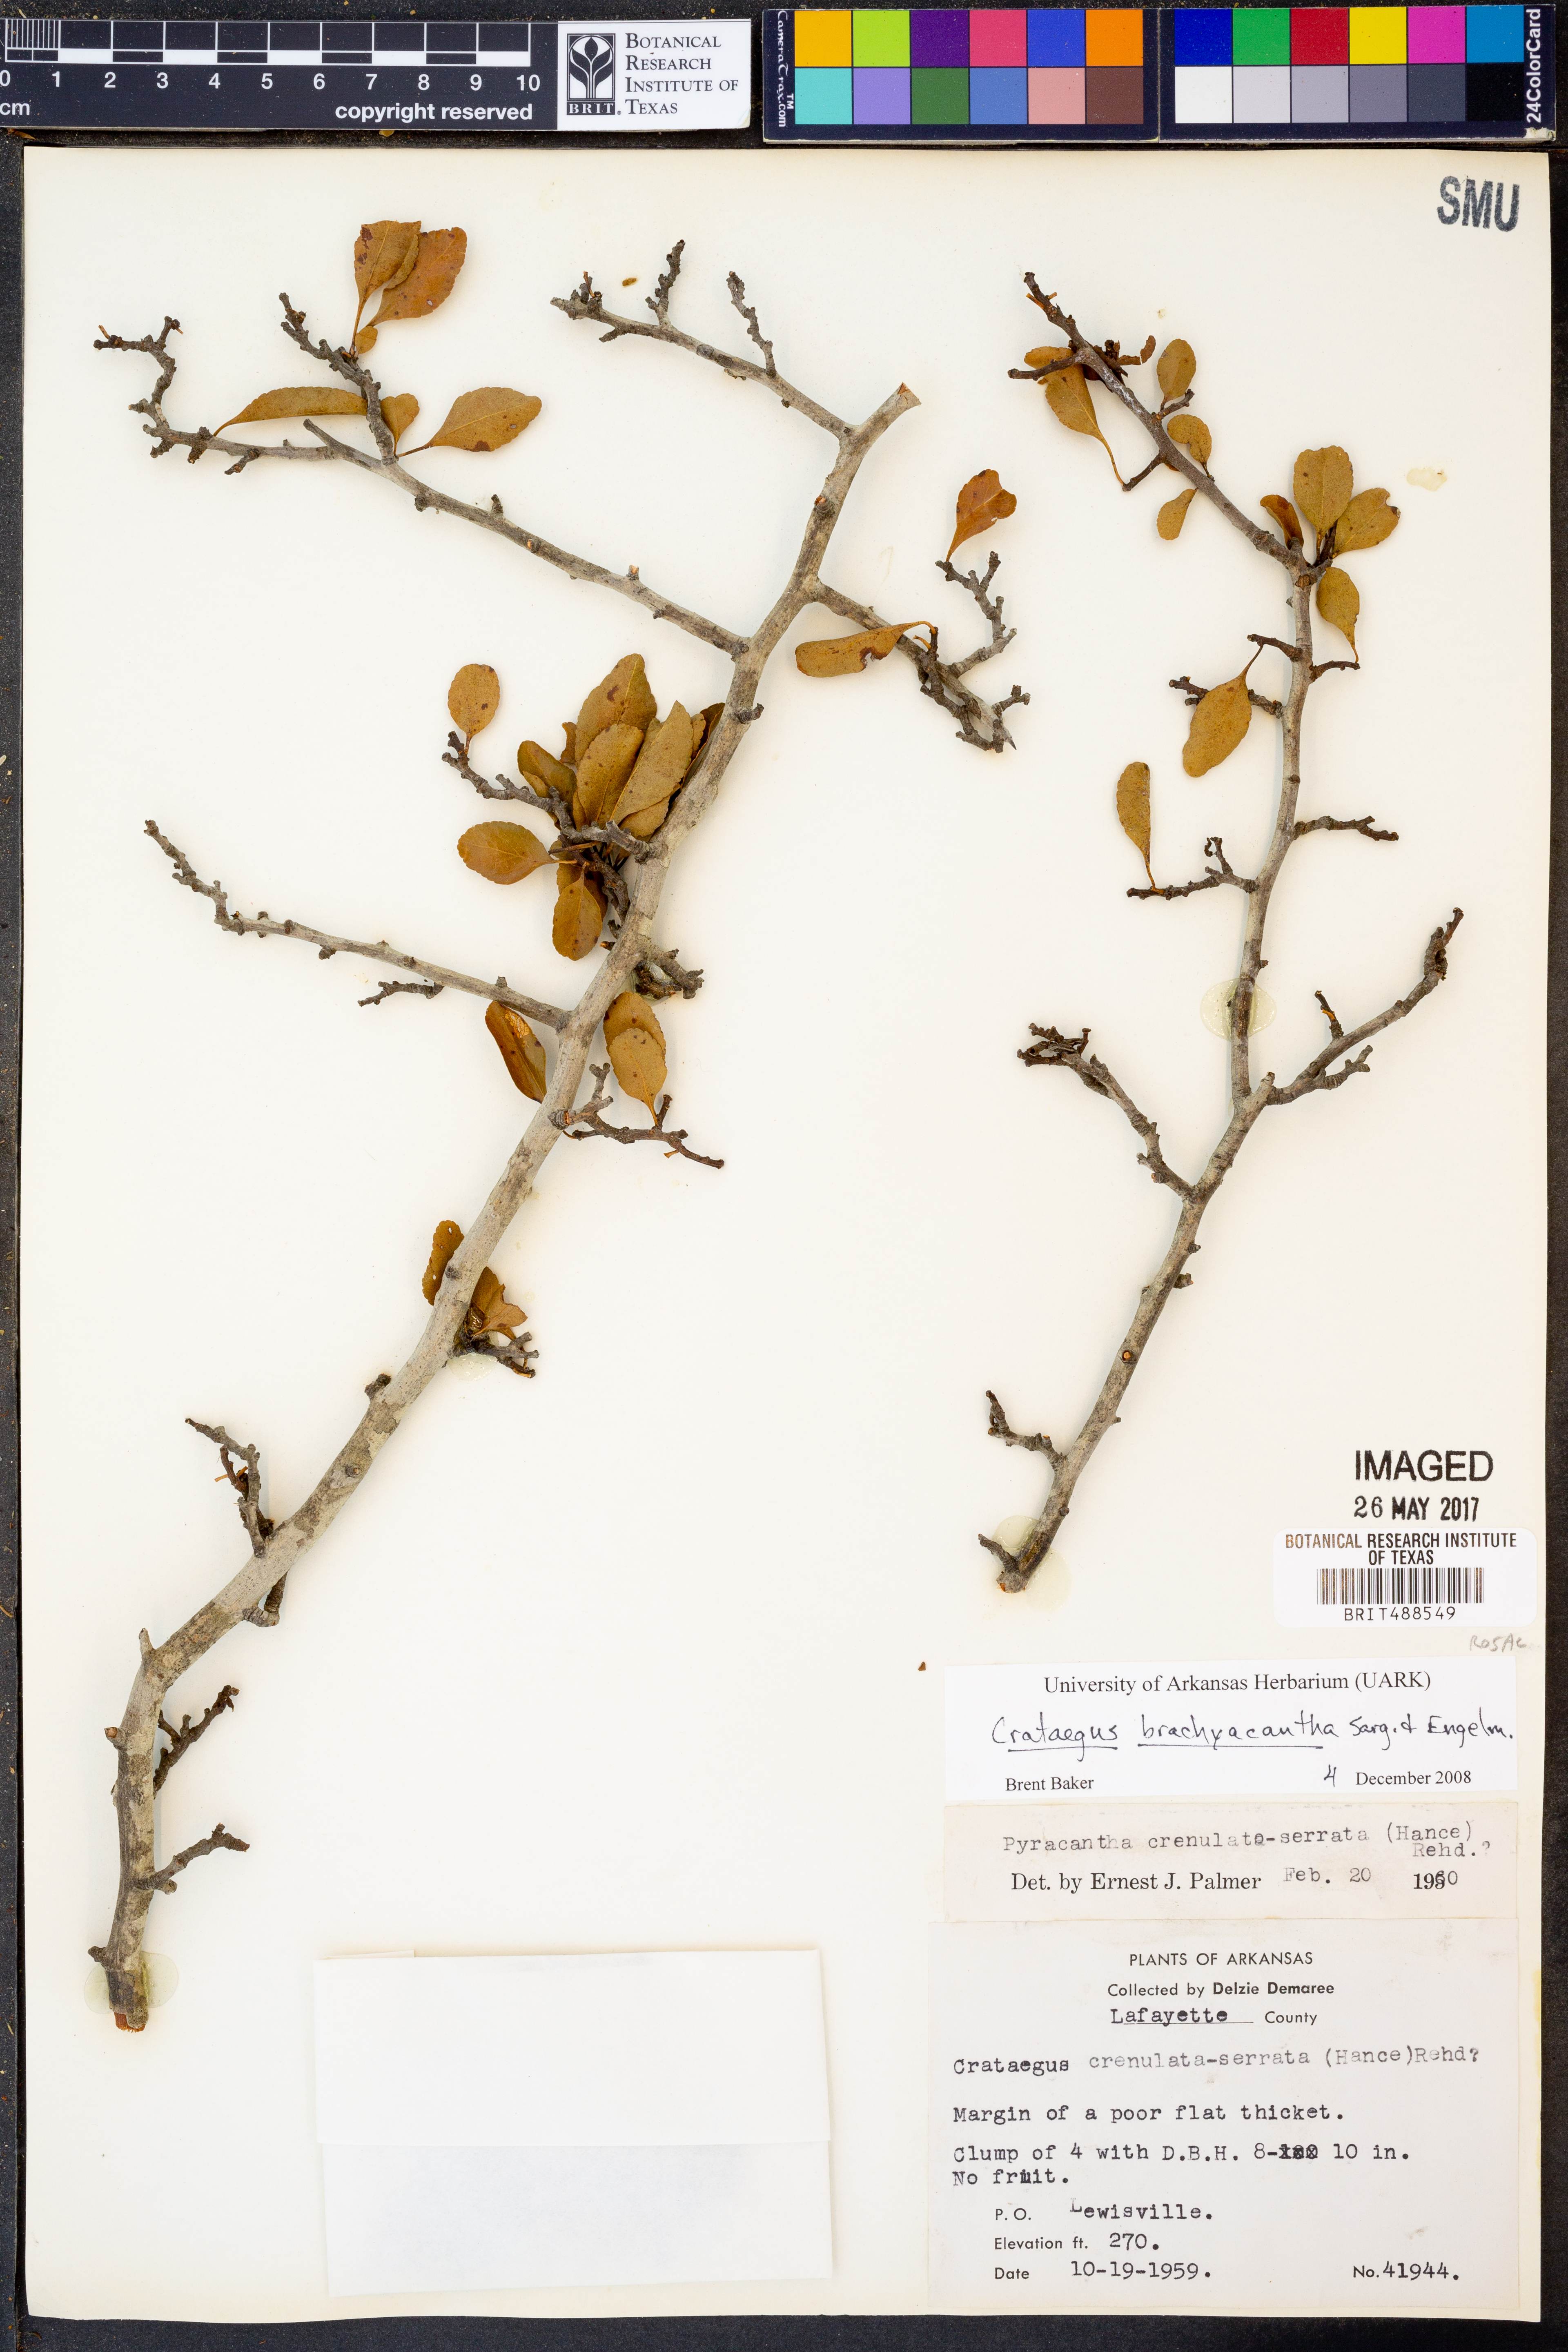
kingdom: Plantae
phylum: Tracheophyta
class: Magnoliopsida
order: Rosales
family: Rosaceae
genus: Crataegus
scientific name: Crataegus brachyacantha
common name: Blueberry-hawthorn
